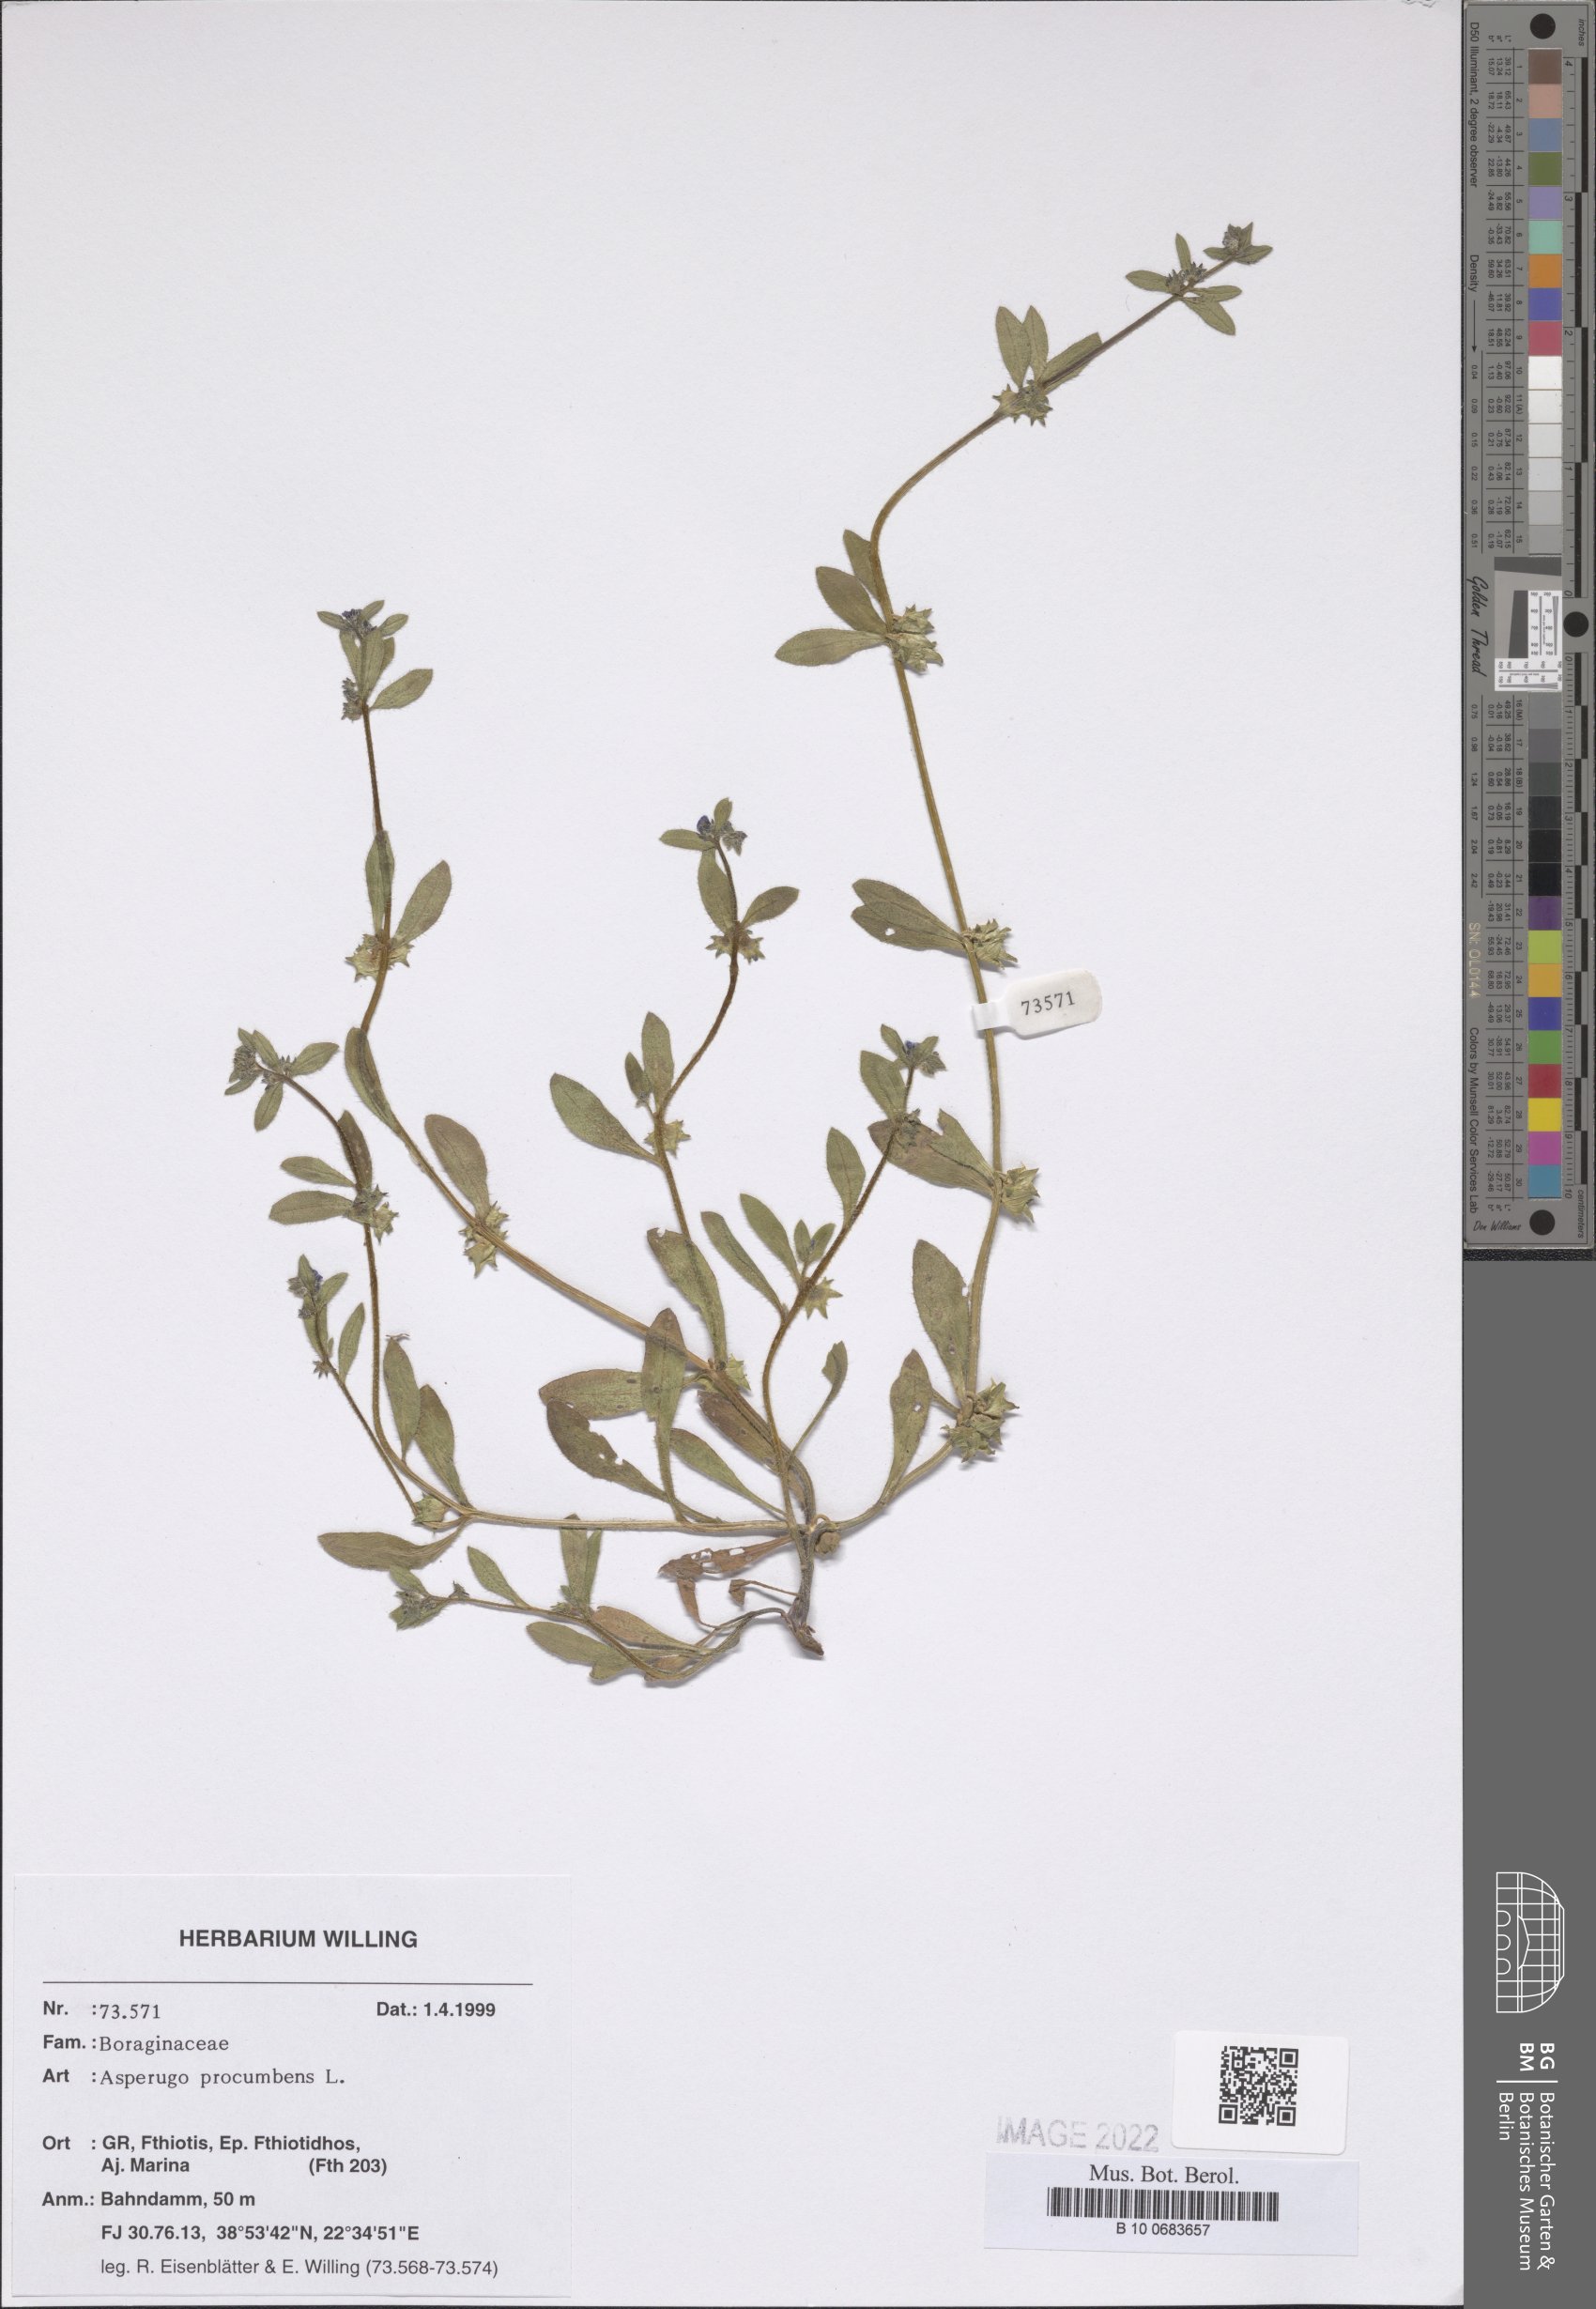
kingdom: Plantae
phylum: Tracheophyta
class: Magnoliopsida
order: Boraginales
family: Boraginaceae
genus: Asperugo
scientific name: Asperugo procumbens
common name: Madwort
